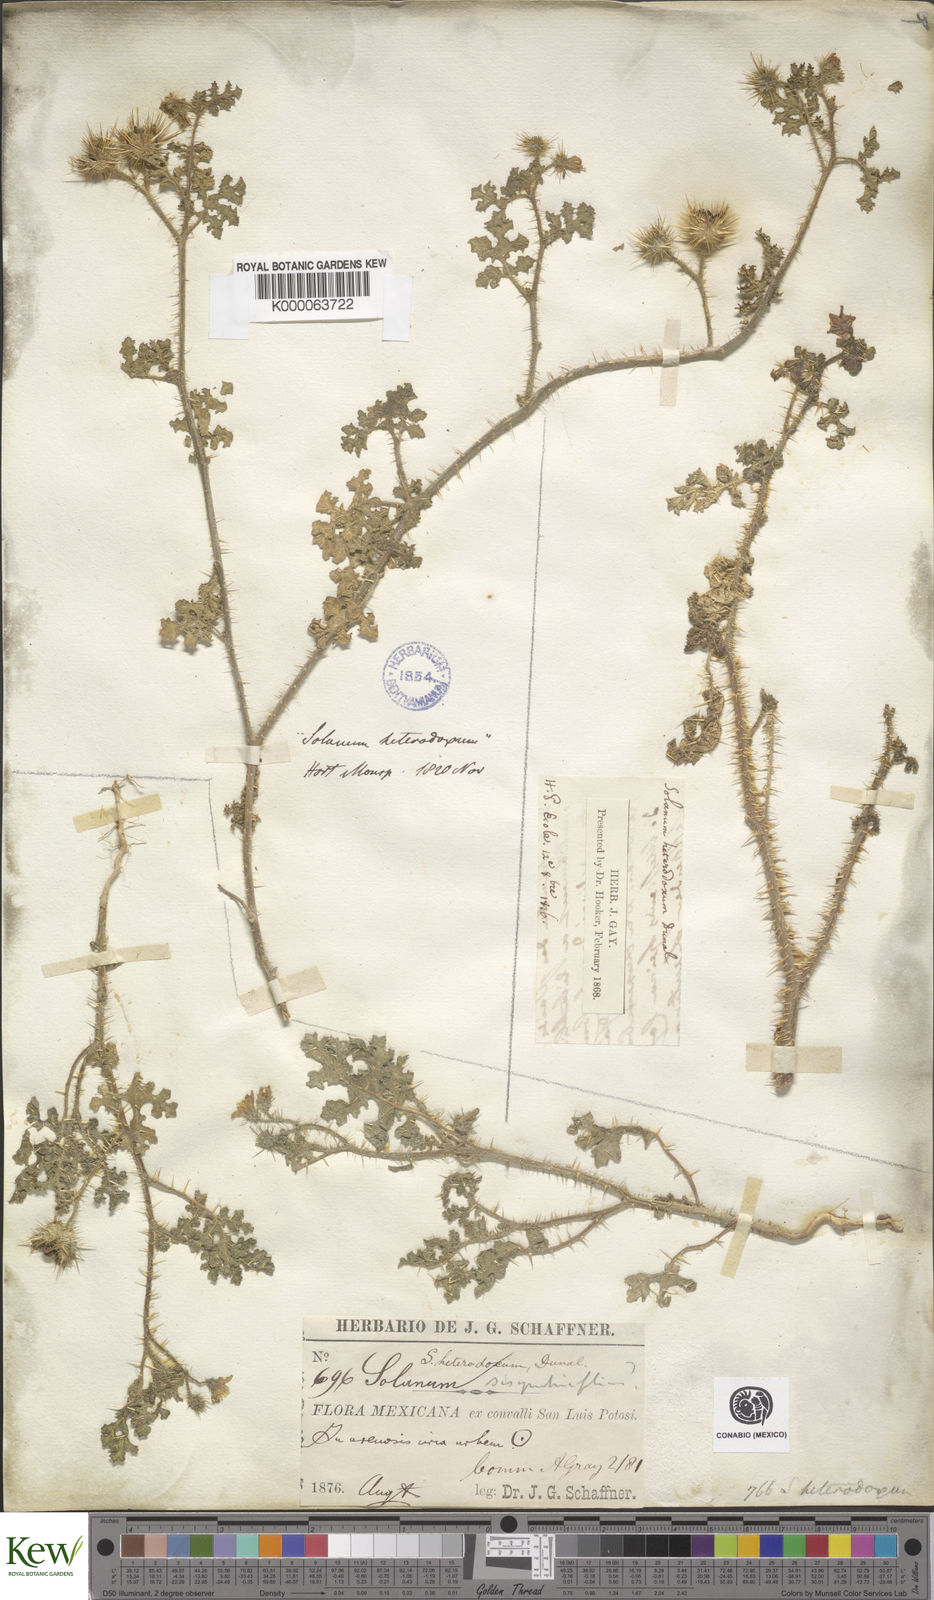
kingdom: Plantae
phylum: Tracheophyta
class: Magnoliopsida
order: Solanales
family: Solanaceae
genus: Solanum
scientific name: Solanum heterodoxum
